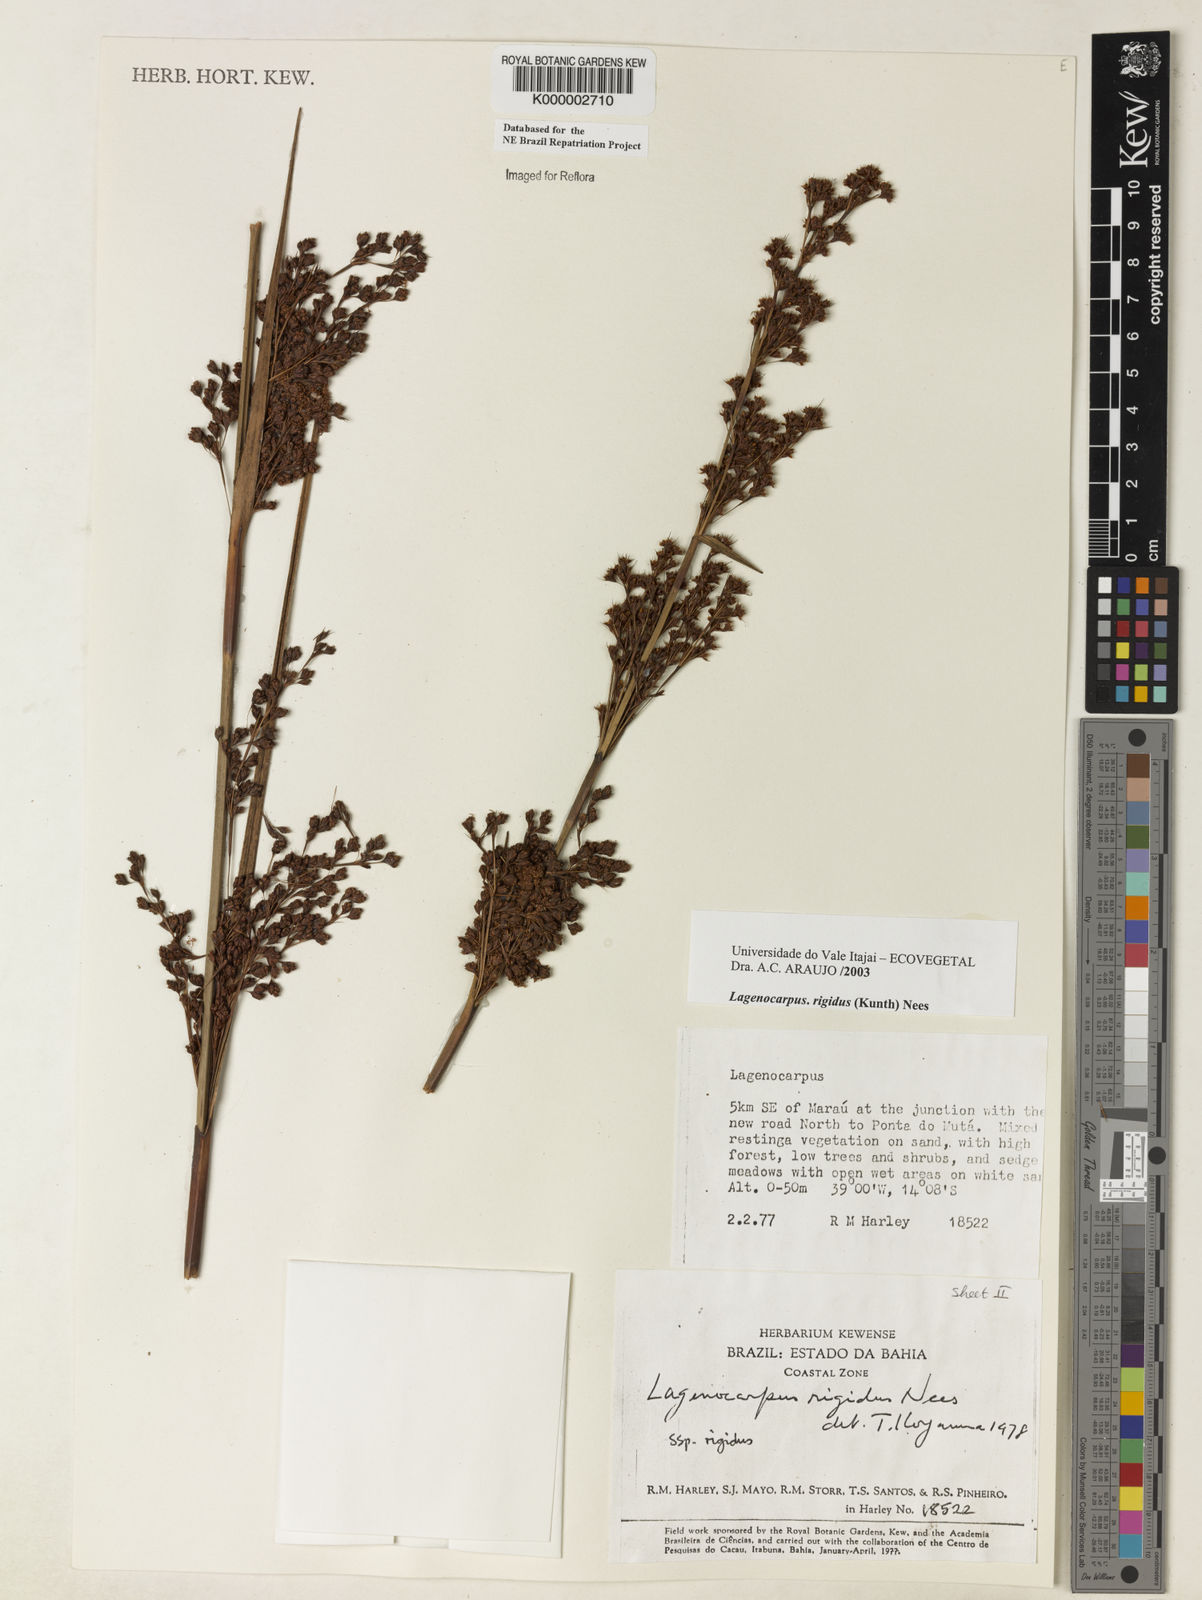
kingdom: Plantae
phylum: Tracheophyta
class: Liliopsida
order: Poales
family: Cyperaceae
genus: Lagenocarpus
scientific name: Lagenocarpus rigidus
